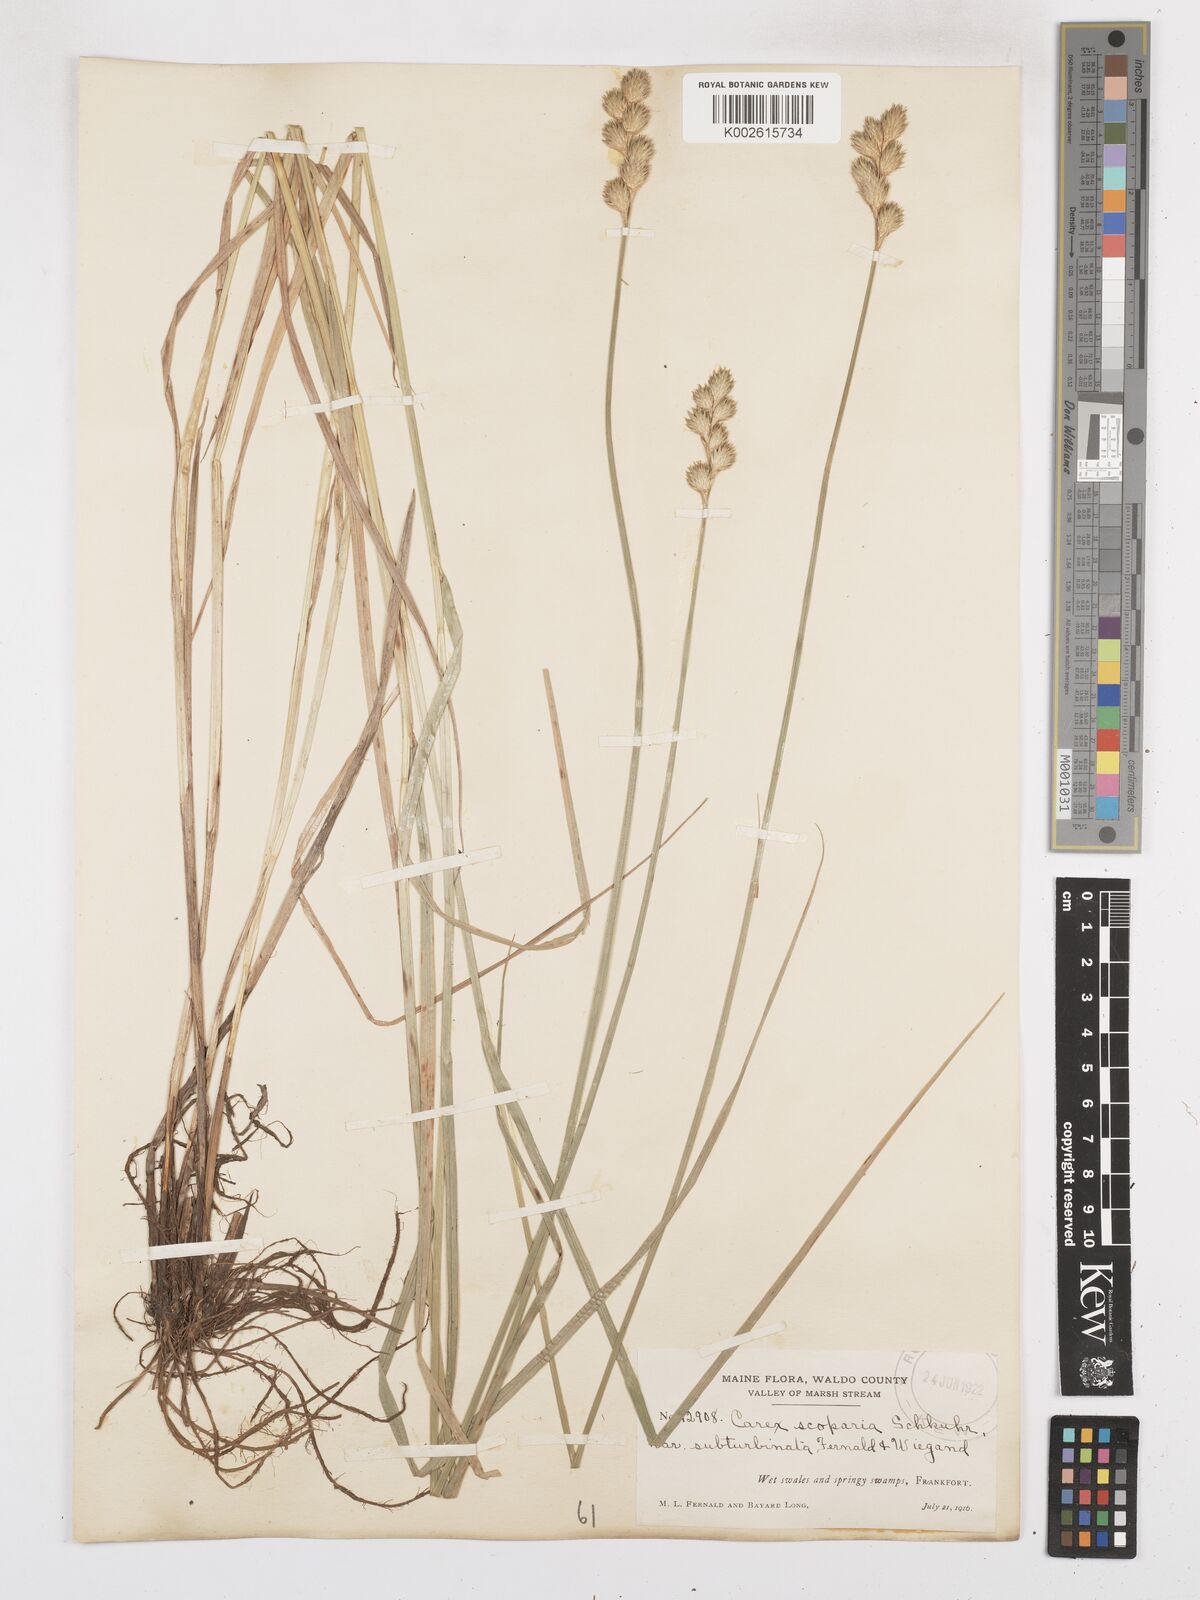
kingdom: Plantae
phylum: Tracheophyta
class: Liliopsida
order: Poales
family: Cyperaceae
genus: Carex
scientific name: Carex leporina
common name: Oval sedge
